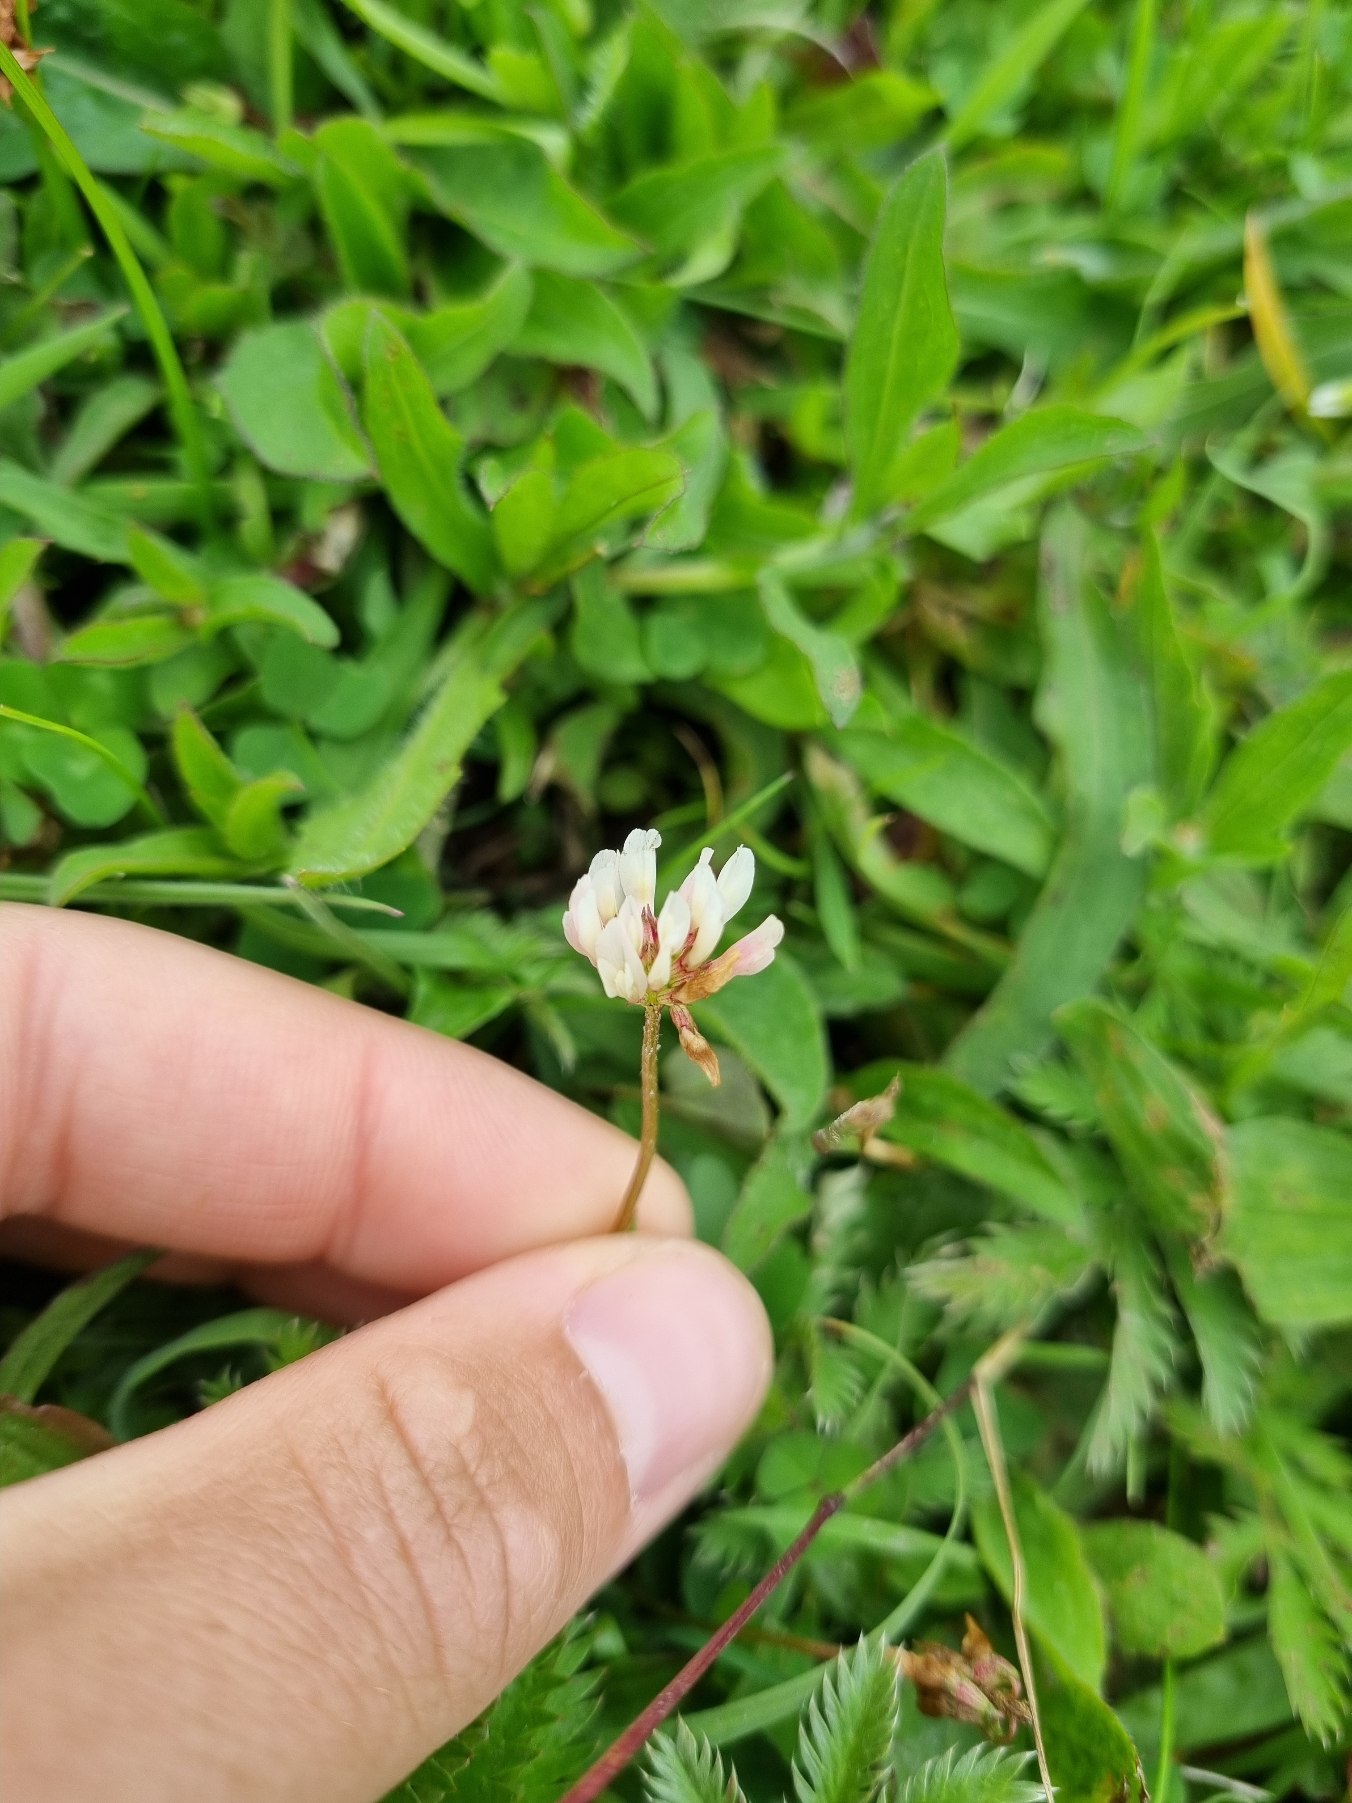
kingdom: Plantae
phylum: Tracheophyta
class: Magnoliopsida
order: Fabales
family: Fabaceae
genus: Trifolium
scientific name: Trifolium repens
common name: Hvid-kløver
